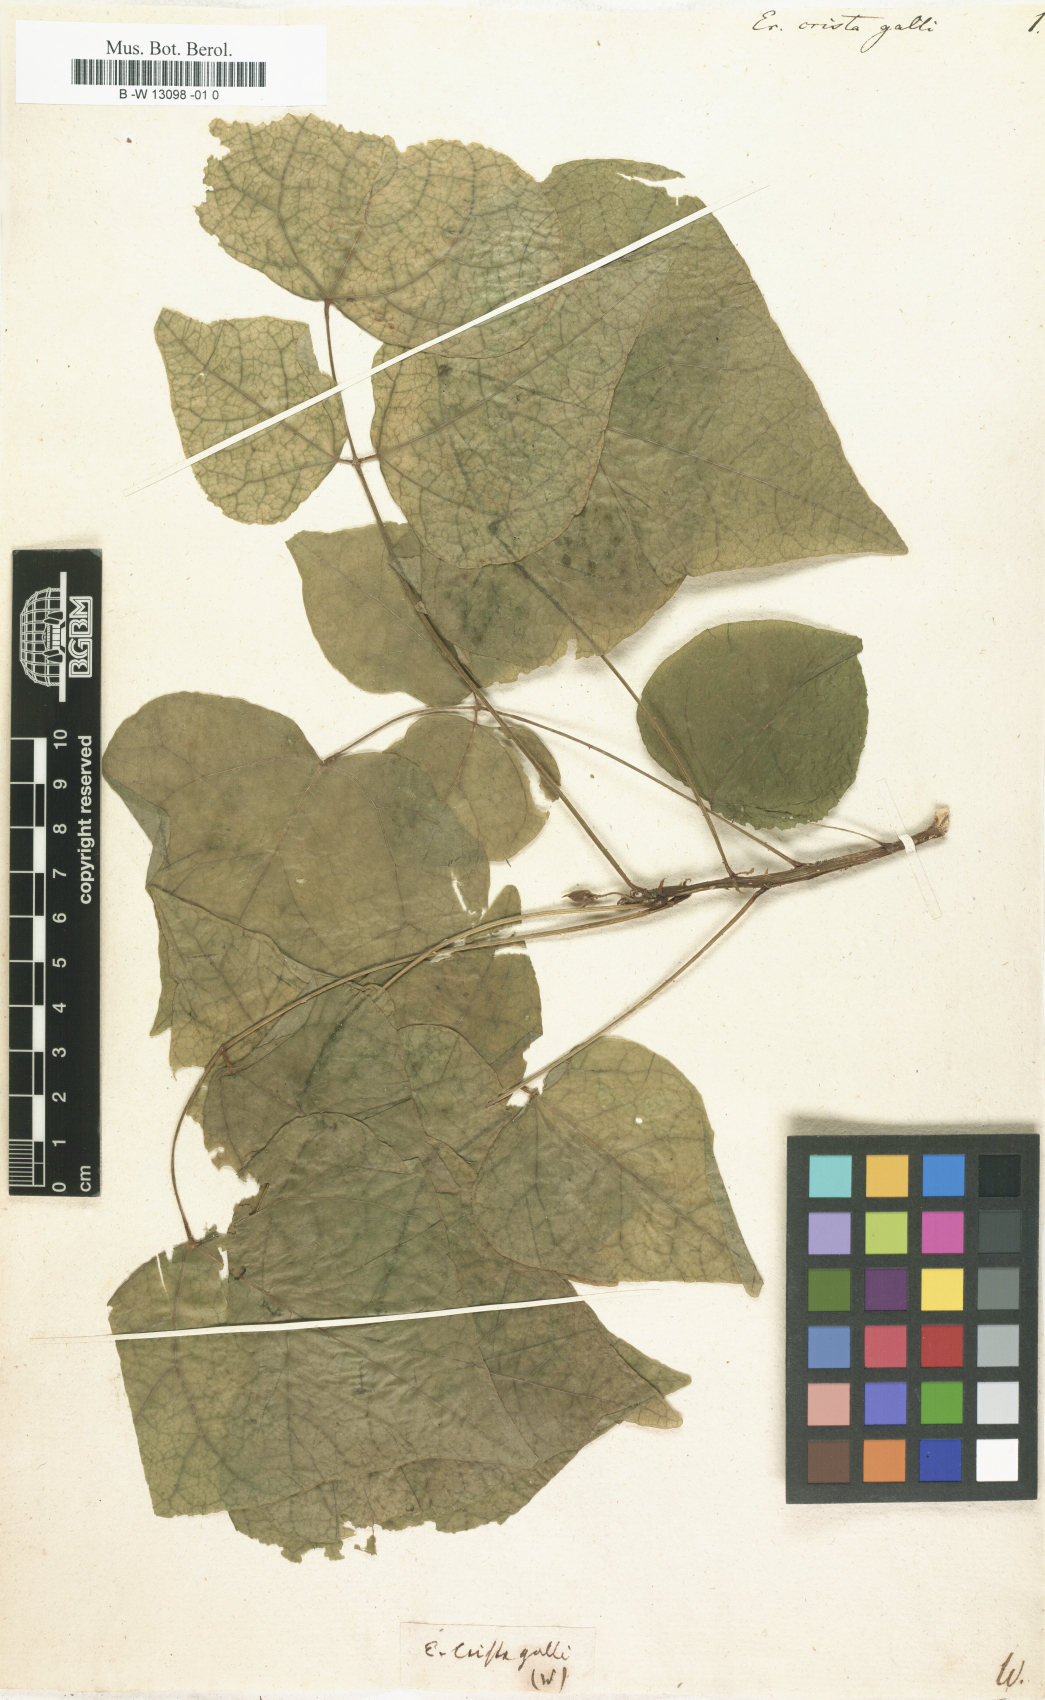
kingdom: Plantae
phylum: Tracheophyta
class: Magnoliopsida
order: Fabales
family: Fabaceae
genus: Erythrina
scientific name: Erythrina crista-galli
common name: Cockspur coral tree
